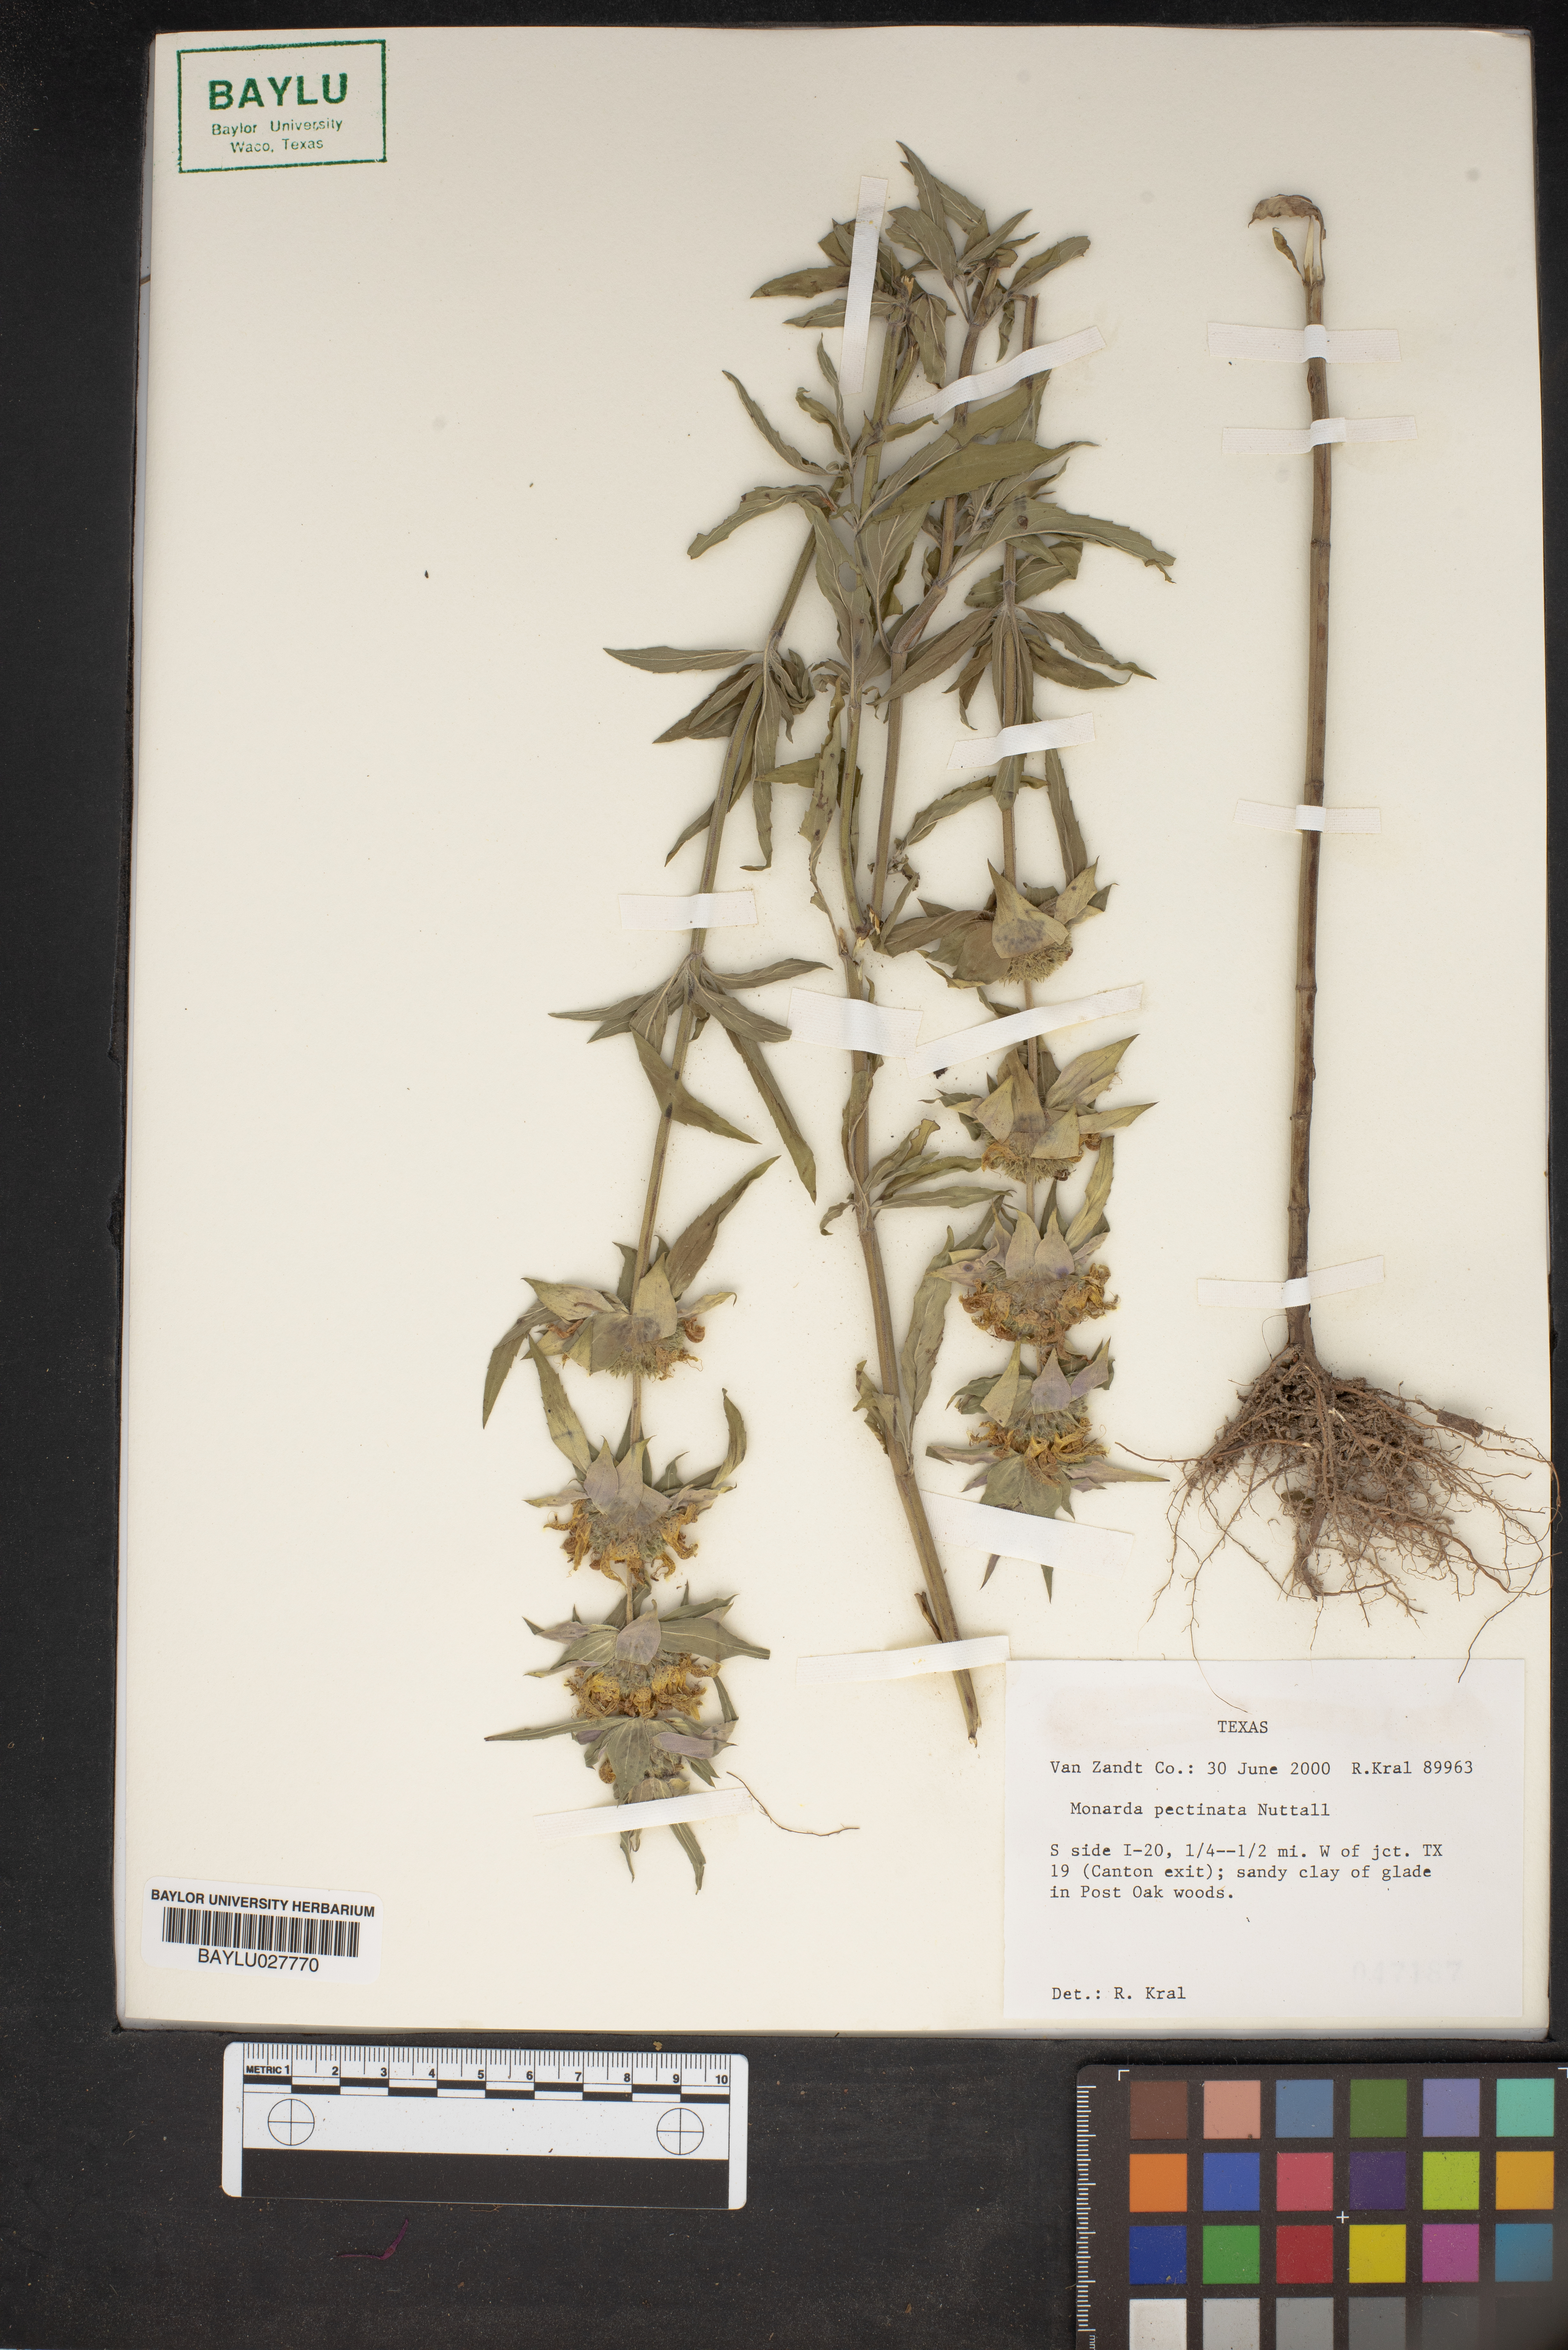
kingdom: Plantae
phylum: Tracheophyta
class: Magnoliopsida
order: Lamiales
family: Lamiaceae
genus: Monarda
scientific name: Monarda pectinata
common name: Plains beebalm
